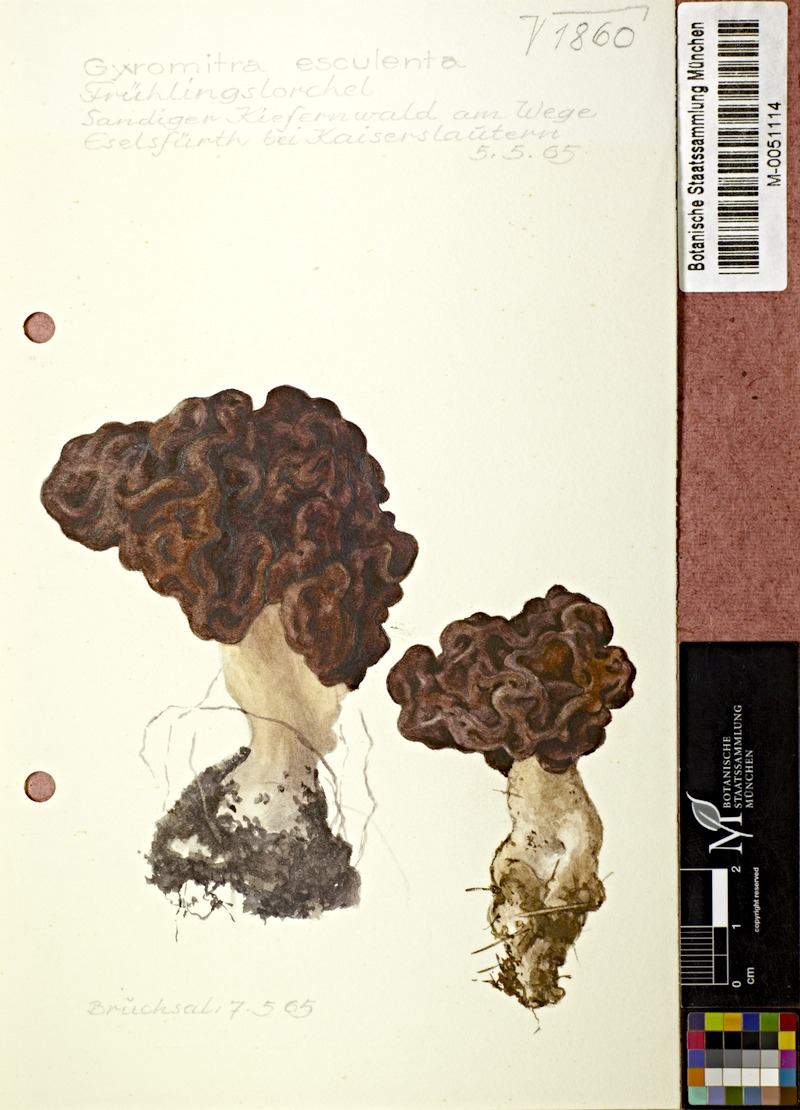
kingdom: Fungi
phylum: Ascomycota
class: Pezizomycetes
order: Pezizales
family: Discinaceae
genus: Gyromitra
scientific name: Gyromitra esculenta
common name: False morel
